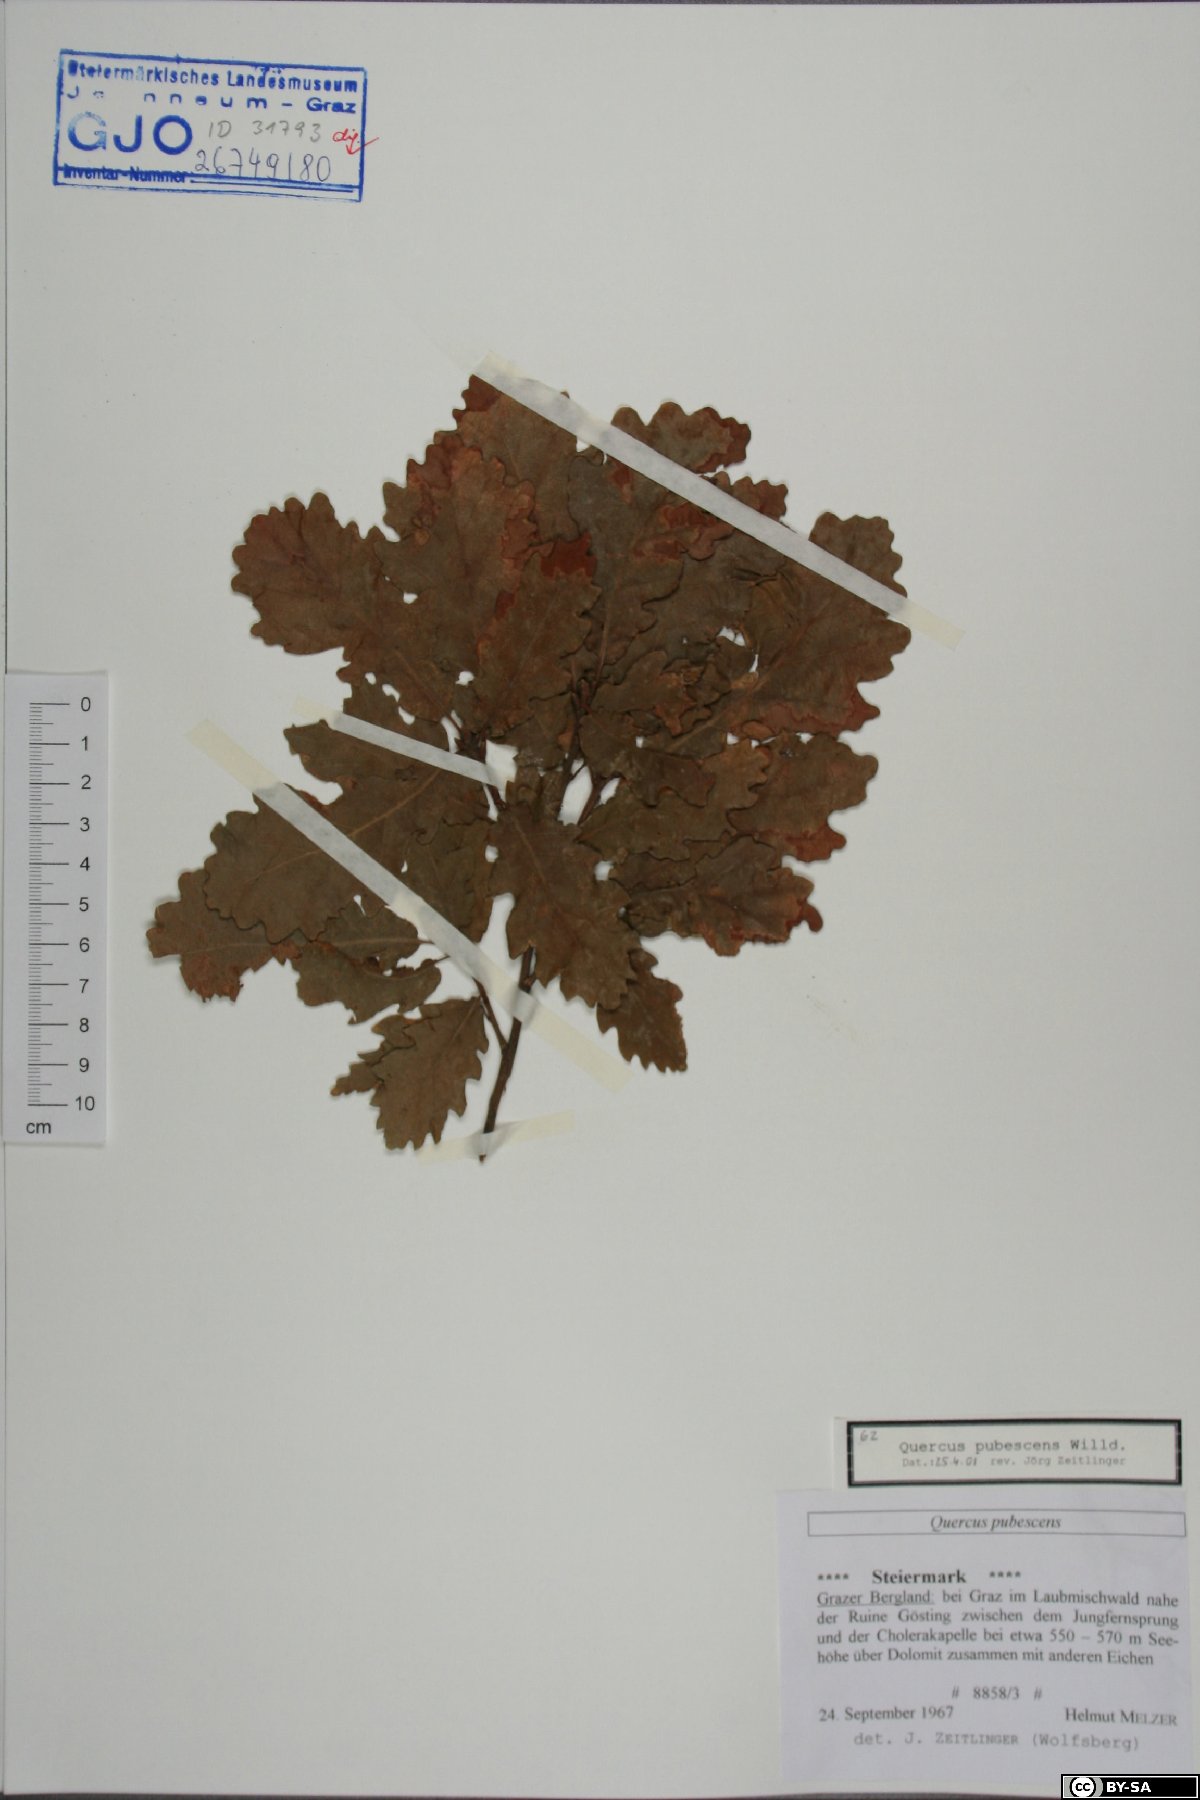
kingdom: Plantae
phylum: Tracheophyta
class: Magnoliopsida
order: Fagales
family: Fagaceae
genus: Quercus
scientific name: Quercus pubescens
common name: Downy oak
